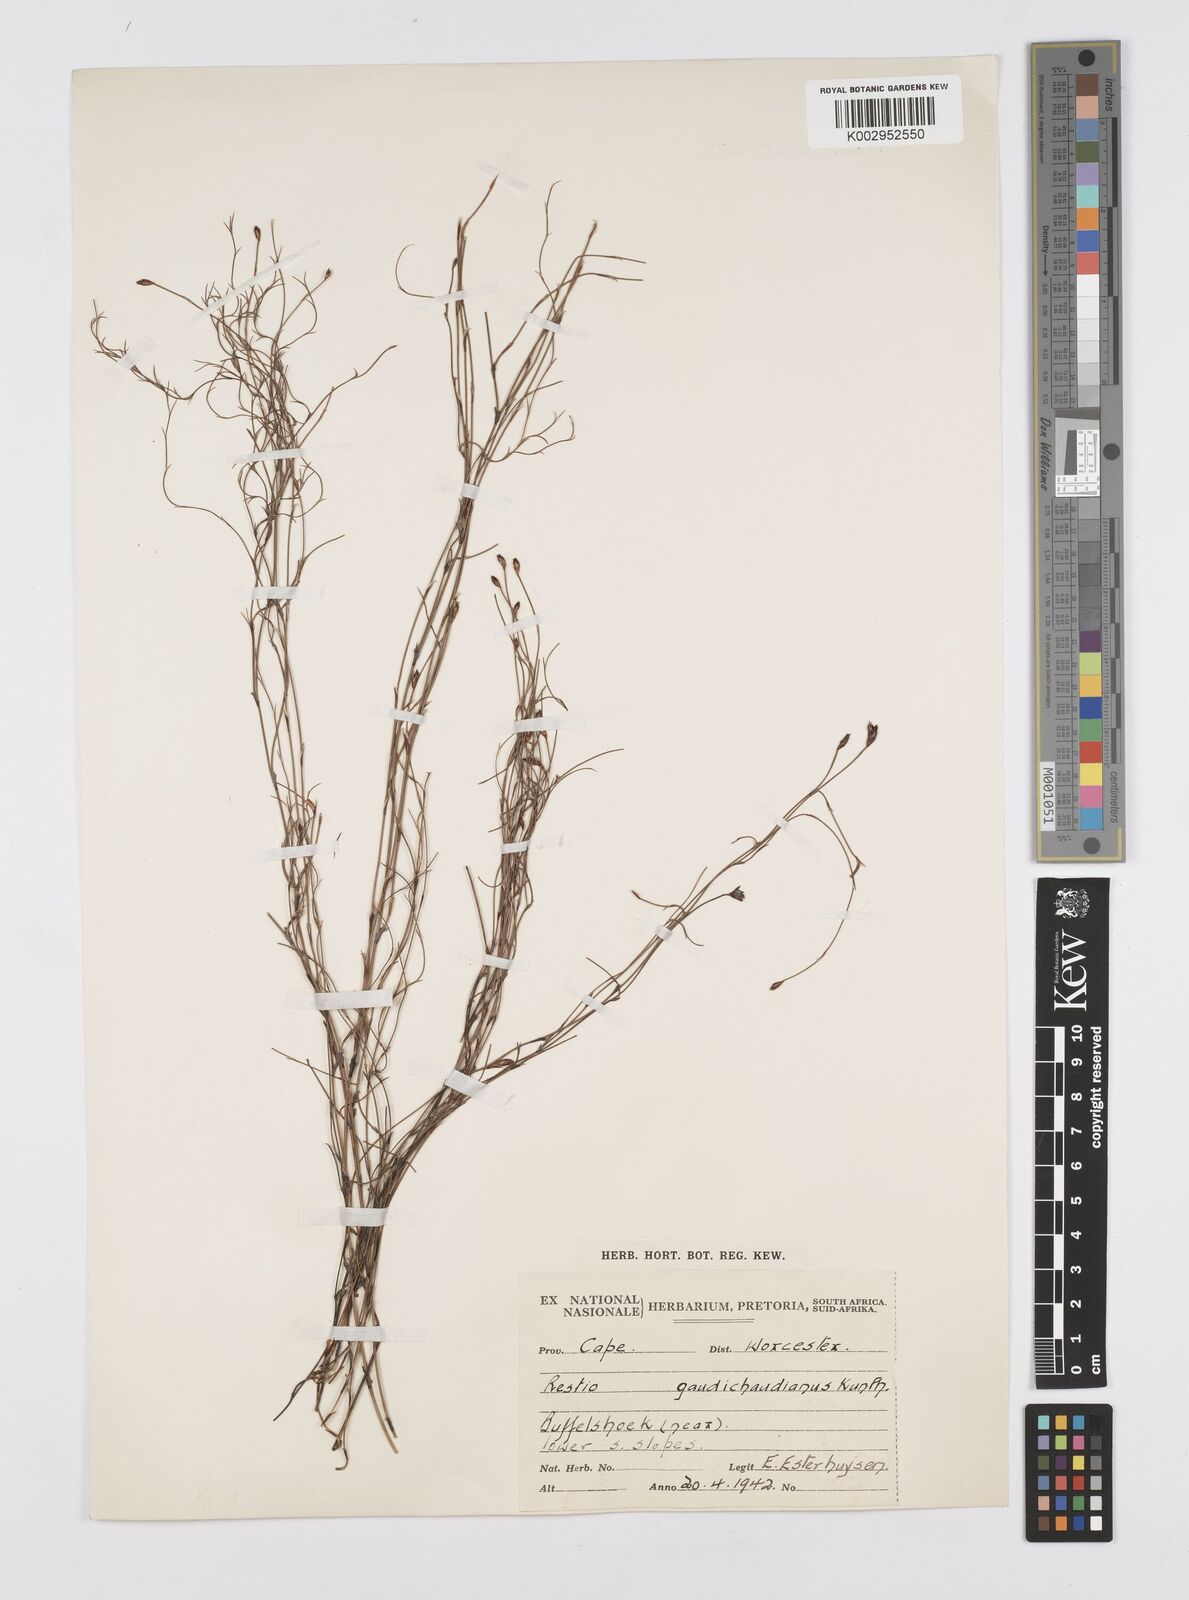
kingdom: Plantae
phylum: Tracheophyta
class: Liliopsida
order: Poales
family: Restionaceae
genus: Restio
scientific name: Restio gaudichaudianus
